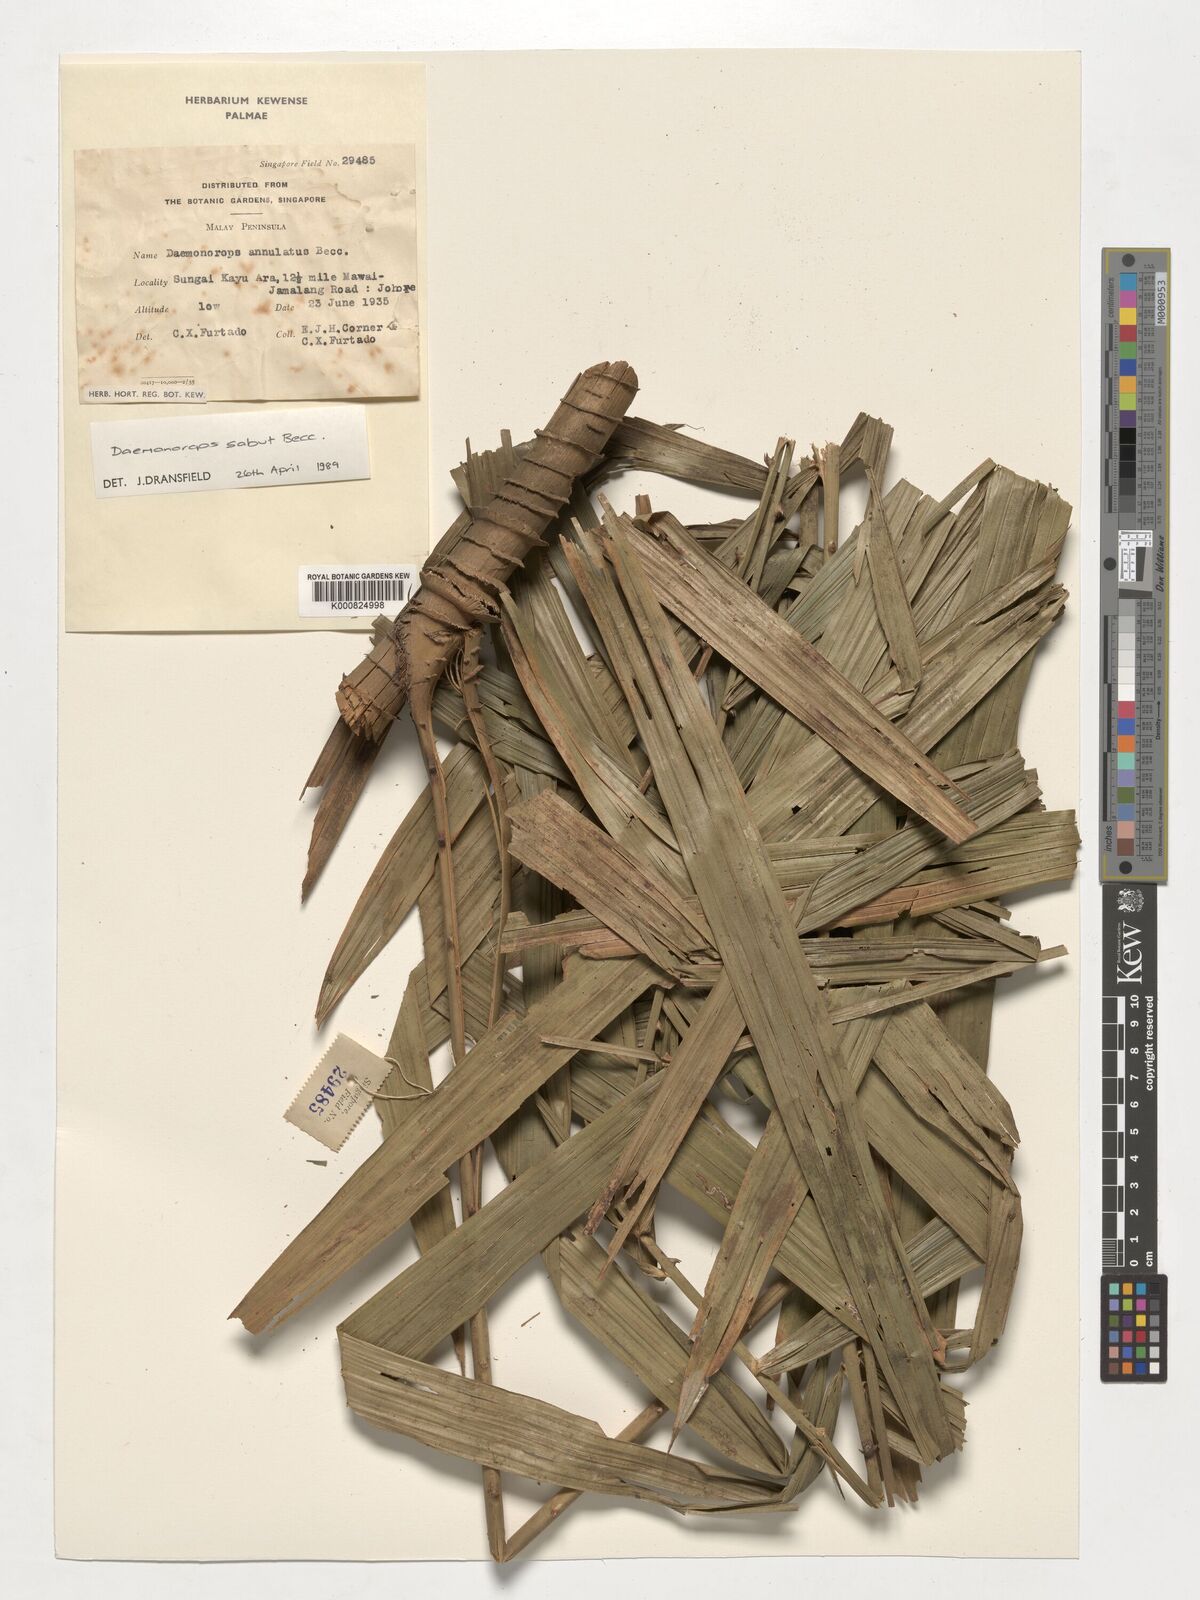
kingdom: Plantae
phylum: Tracheophyta
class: Liliopsida
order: Arecales
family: Arecaceae
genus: Calamus
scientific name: Calamus crinitus
